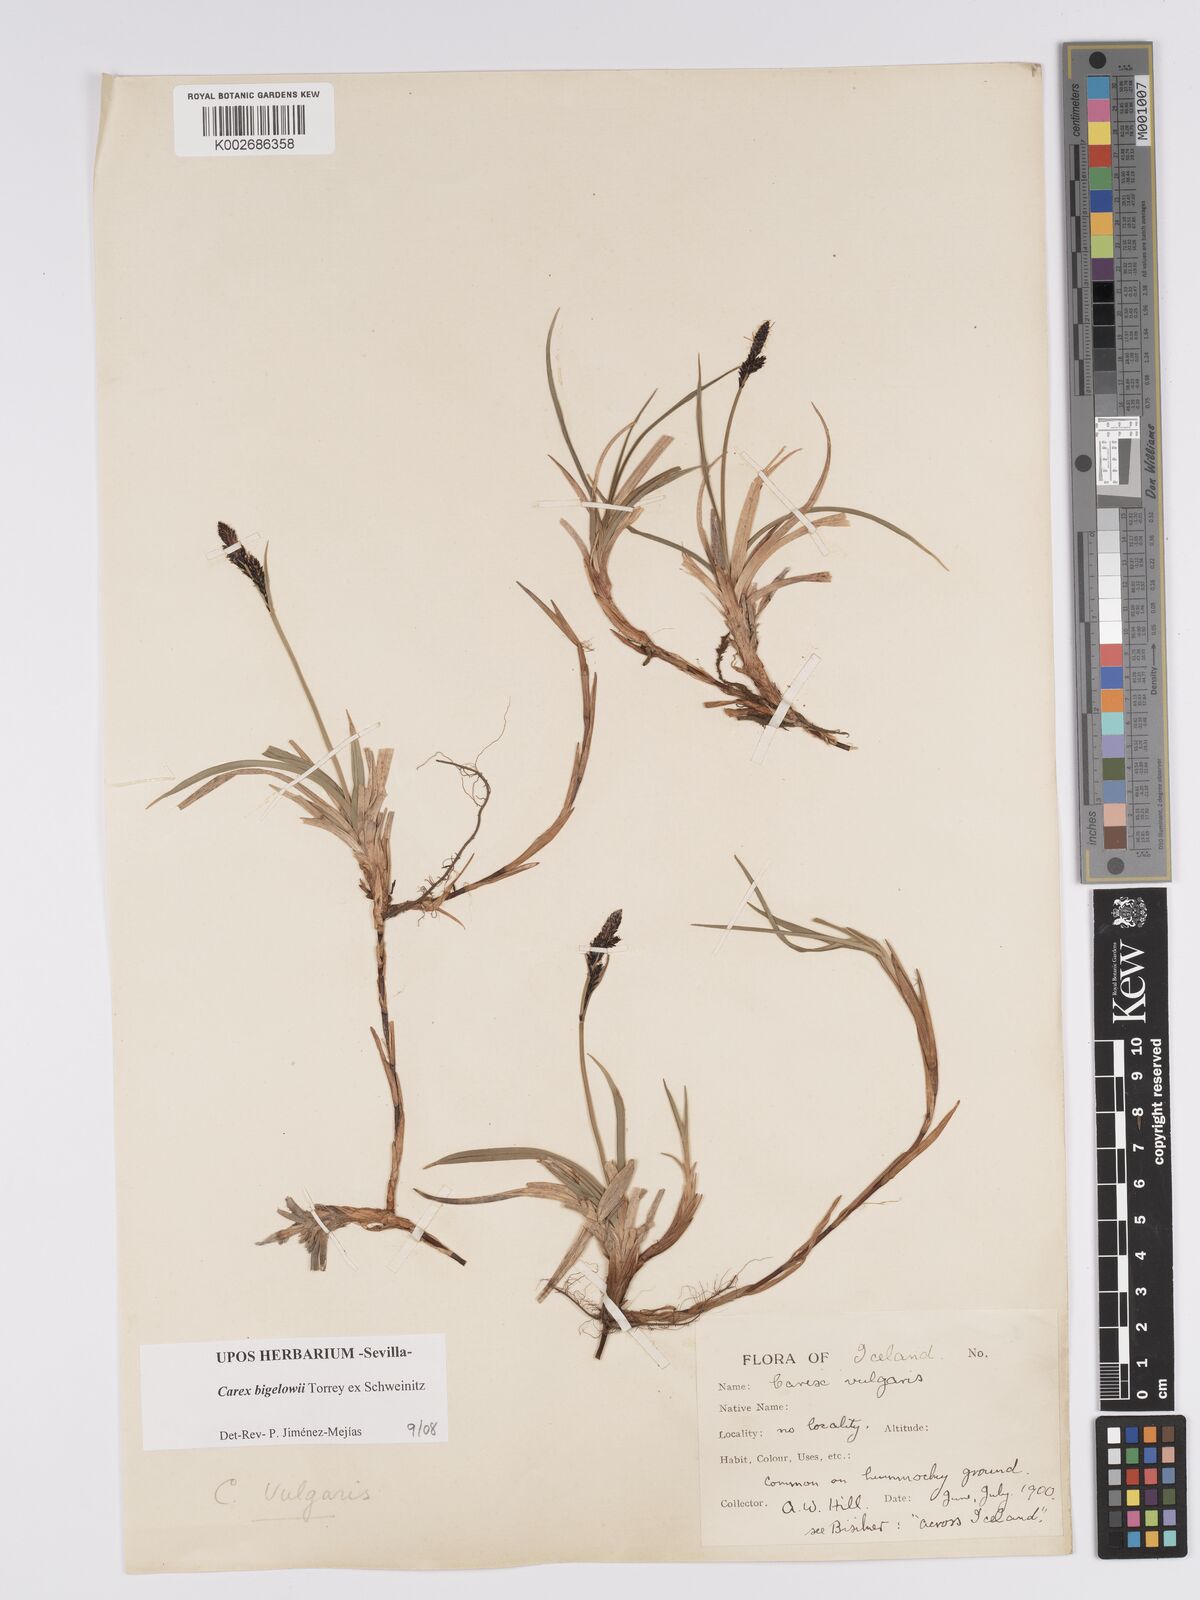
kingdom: Plantae
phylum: Tracheophyta
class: Liliopsida
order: Poales
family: Cyperaceae
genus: Carex
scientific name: Carex bigelowii
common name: Stiff sedge
